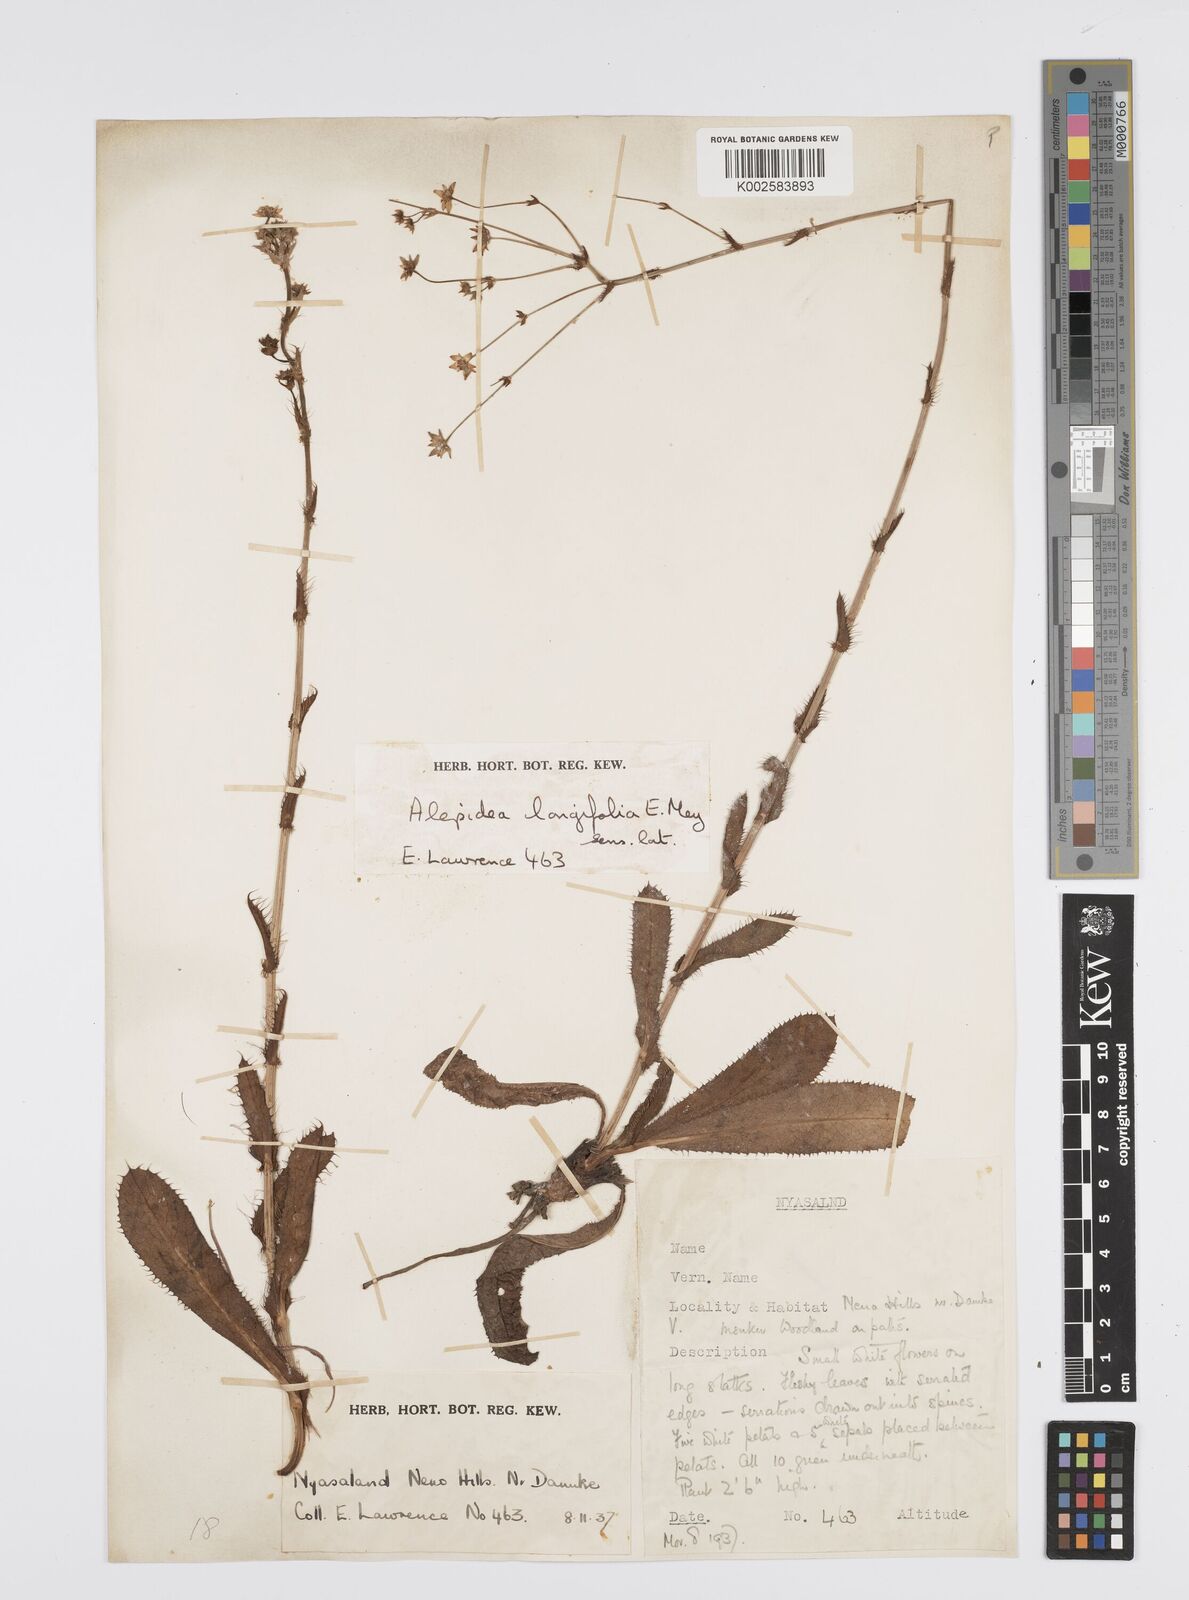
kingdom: Plantae
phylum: Tracheophyta
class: Magnoliopsida
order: Apiales
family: Apiaceae
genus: Alepidea
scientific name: Alepidea
